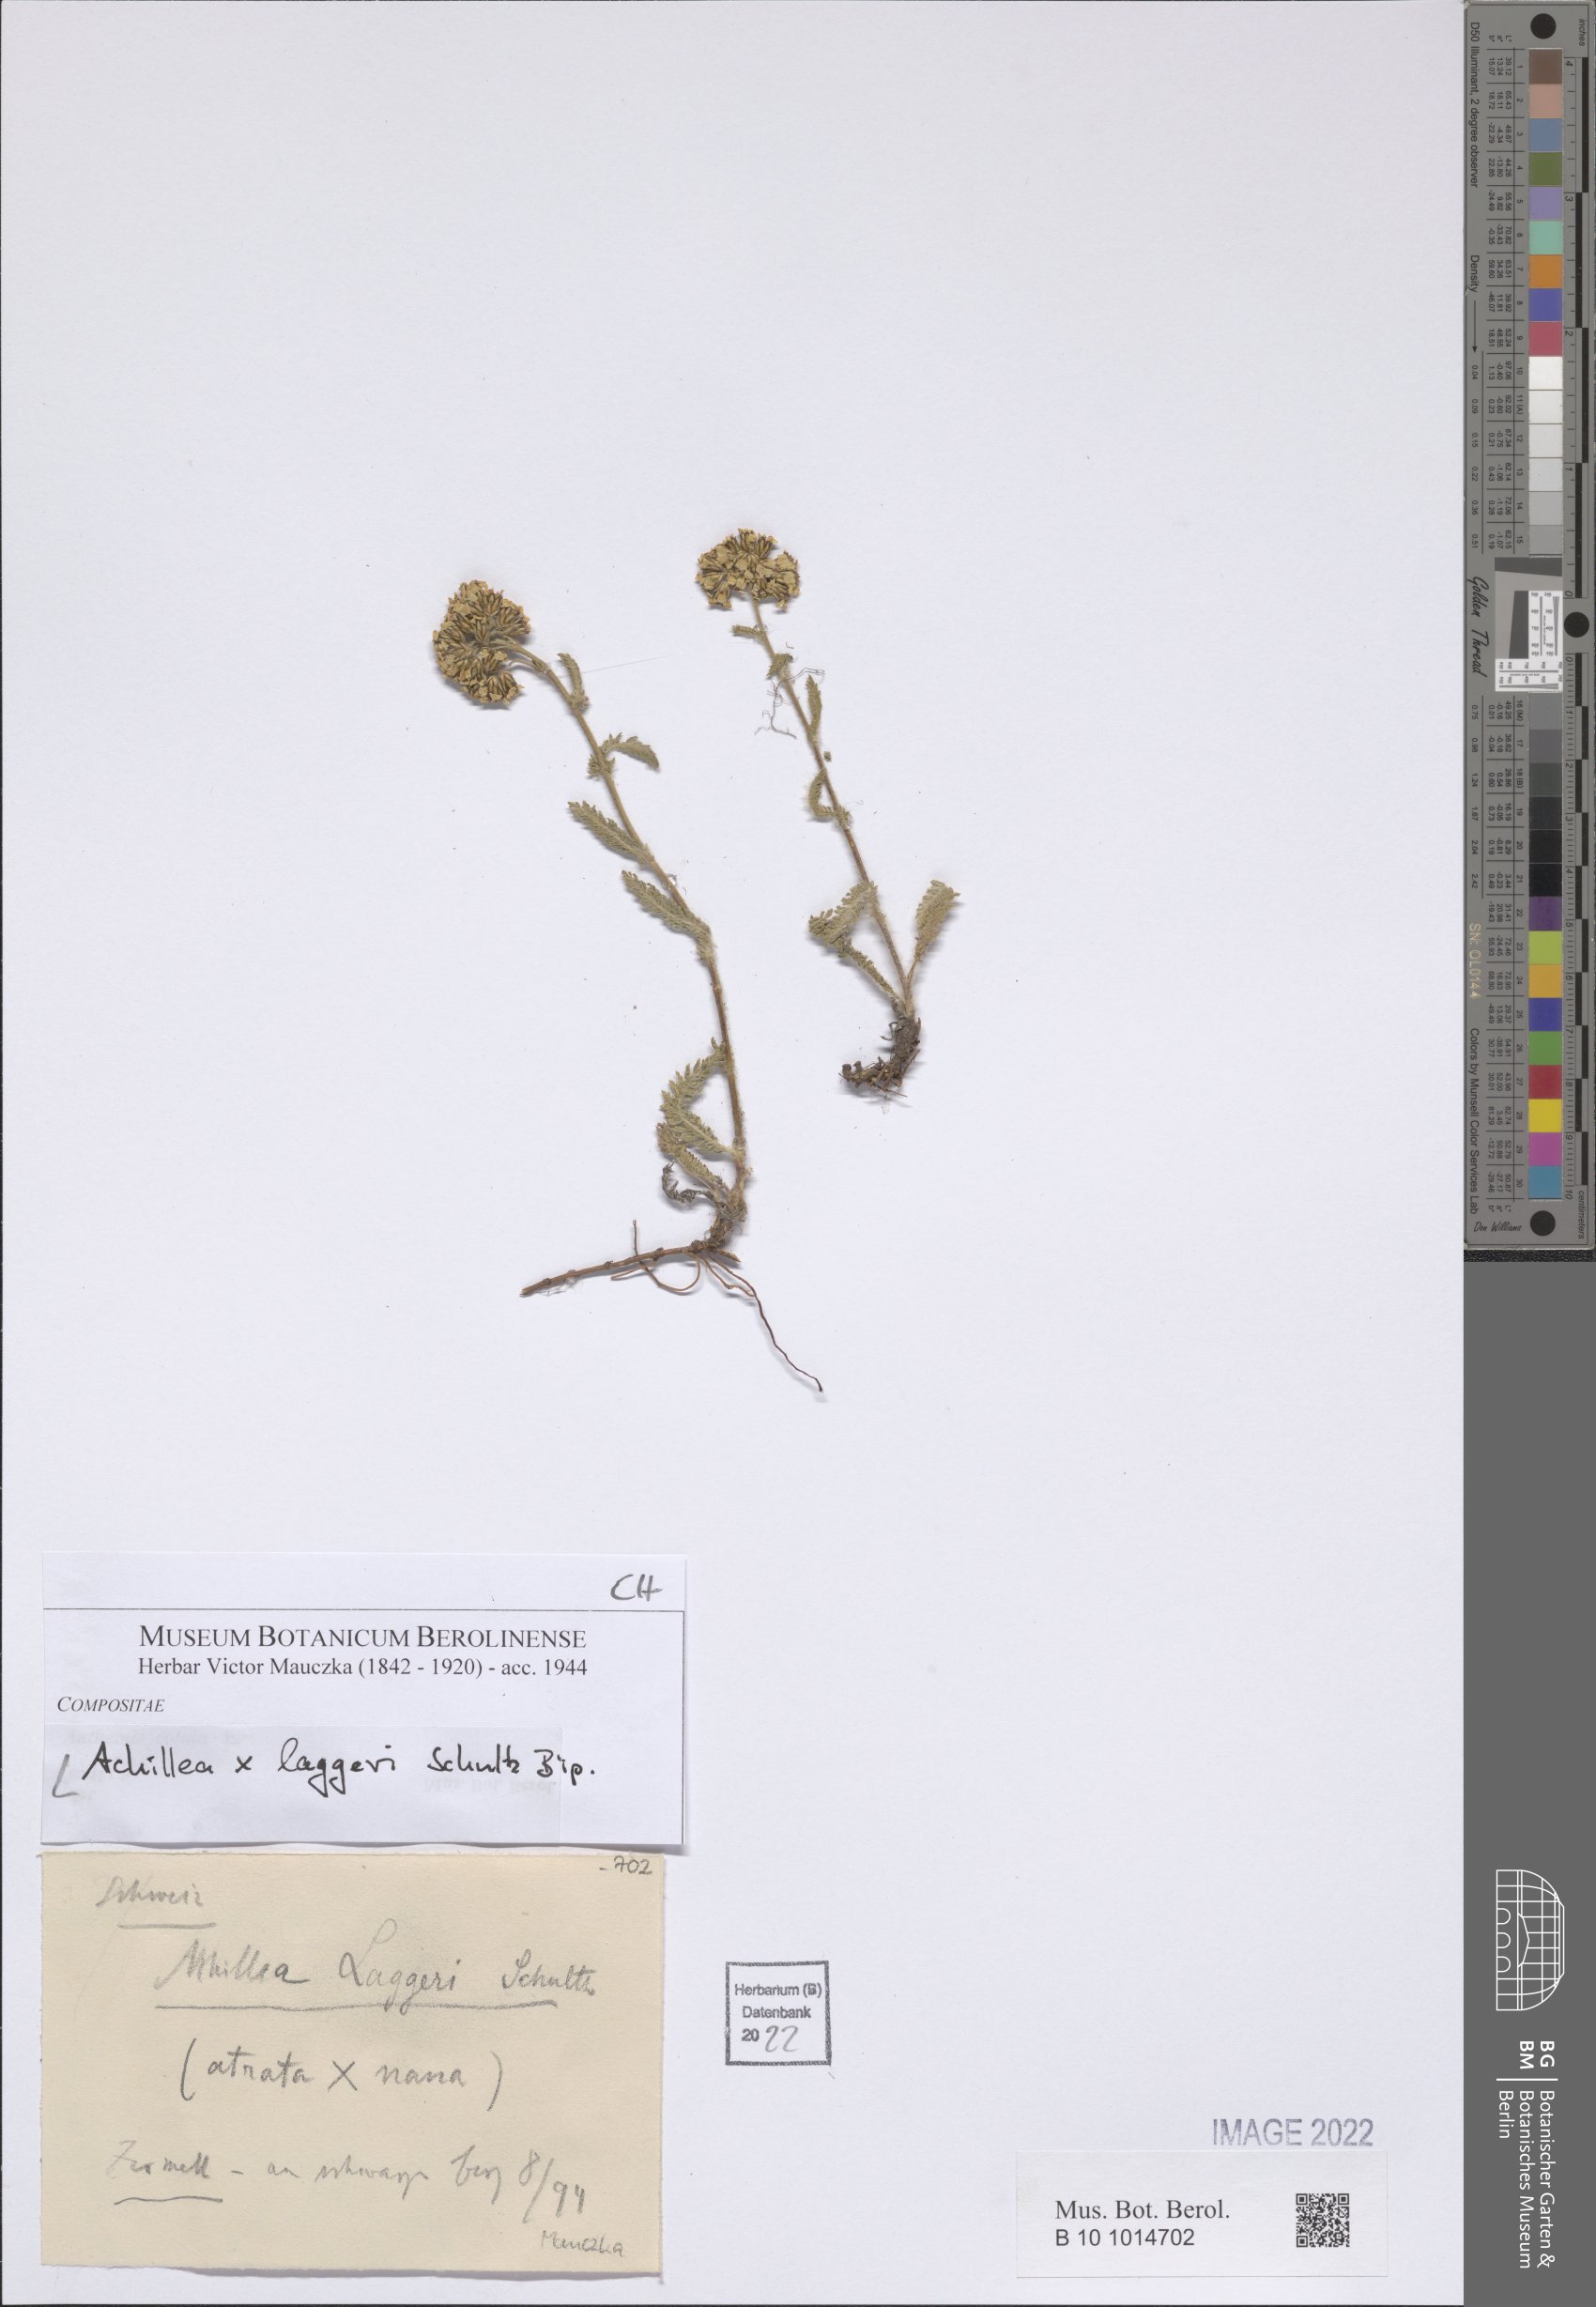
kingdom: Plantae
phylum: Tracheophyta
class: Magnoliopsida
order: Asterales
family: Asteraceae
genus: Achillea
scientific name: Achillea laggeri
